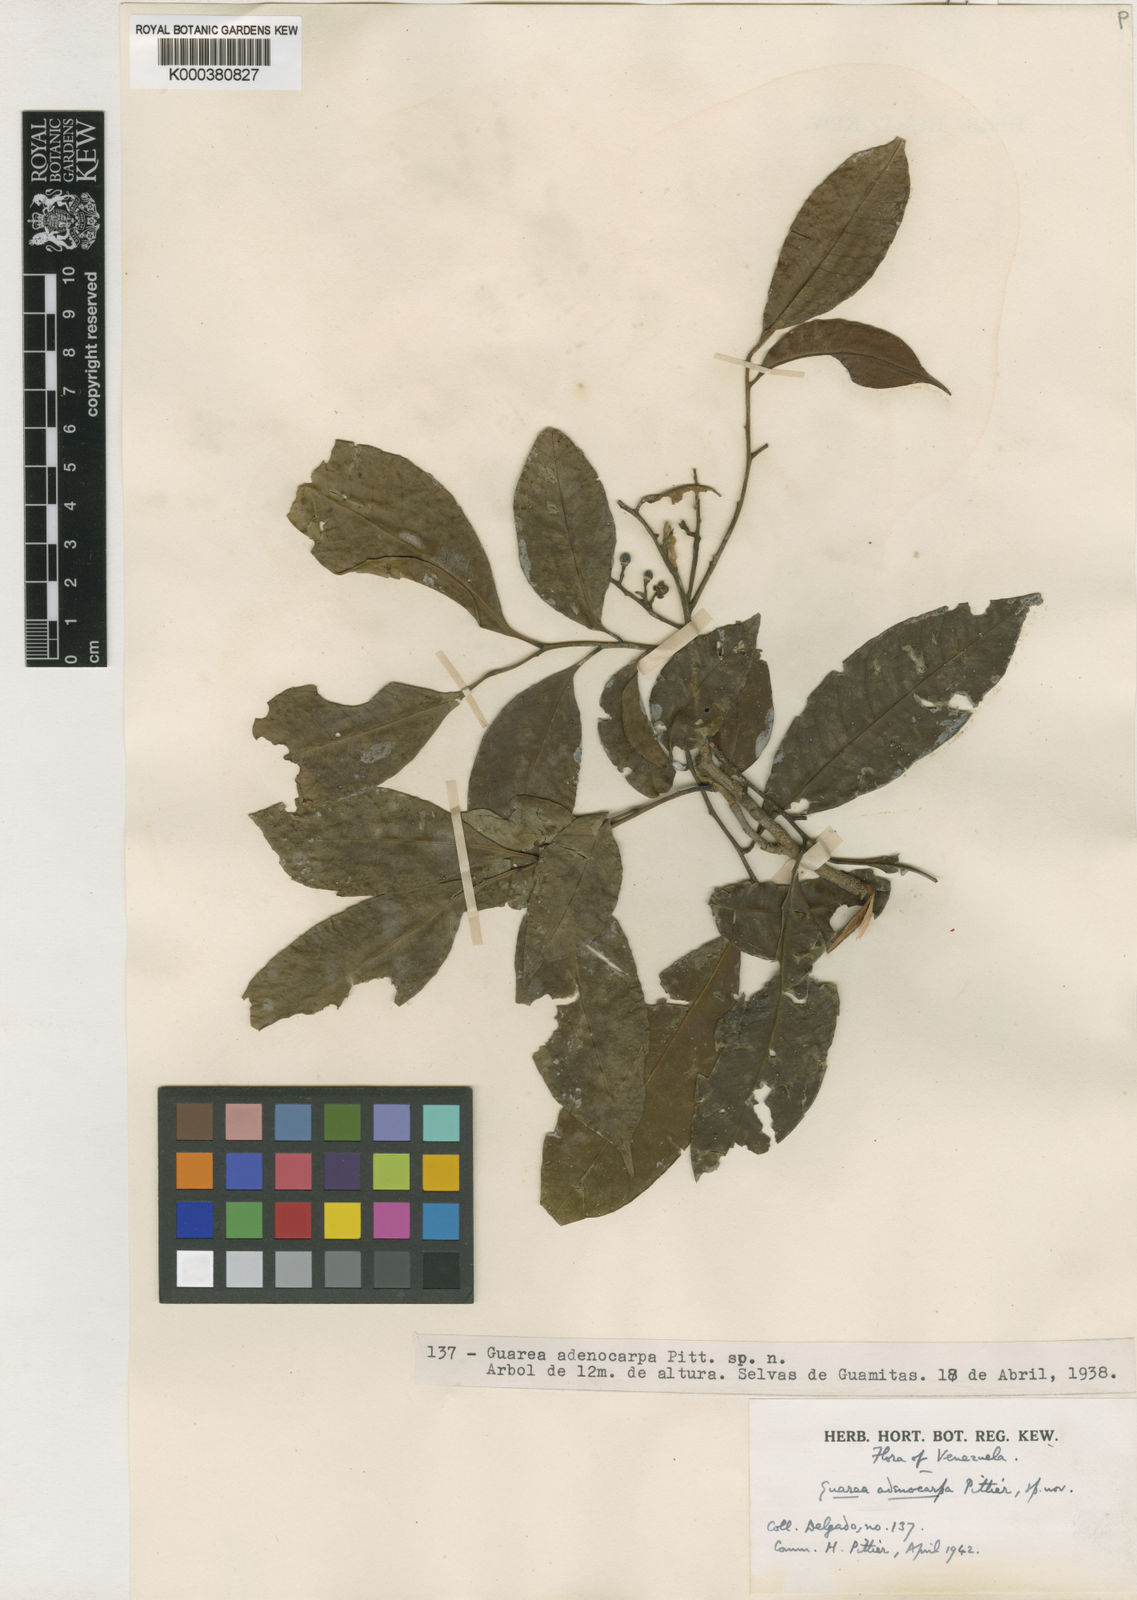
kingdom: Plantae
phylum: Tracheophyta
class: Magnoliopsida
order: Sapindales
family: Meliaceae
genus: Trichilia
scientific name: Trichilia pleeana
